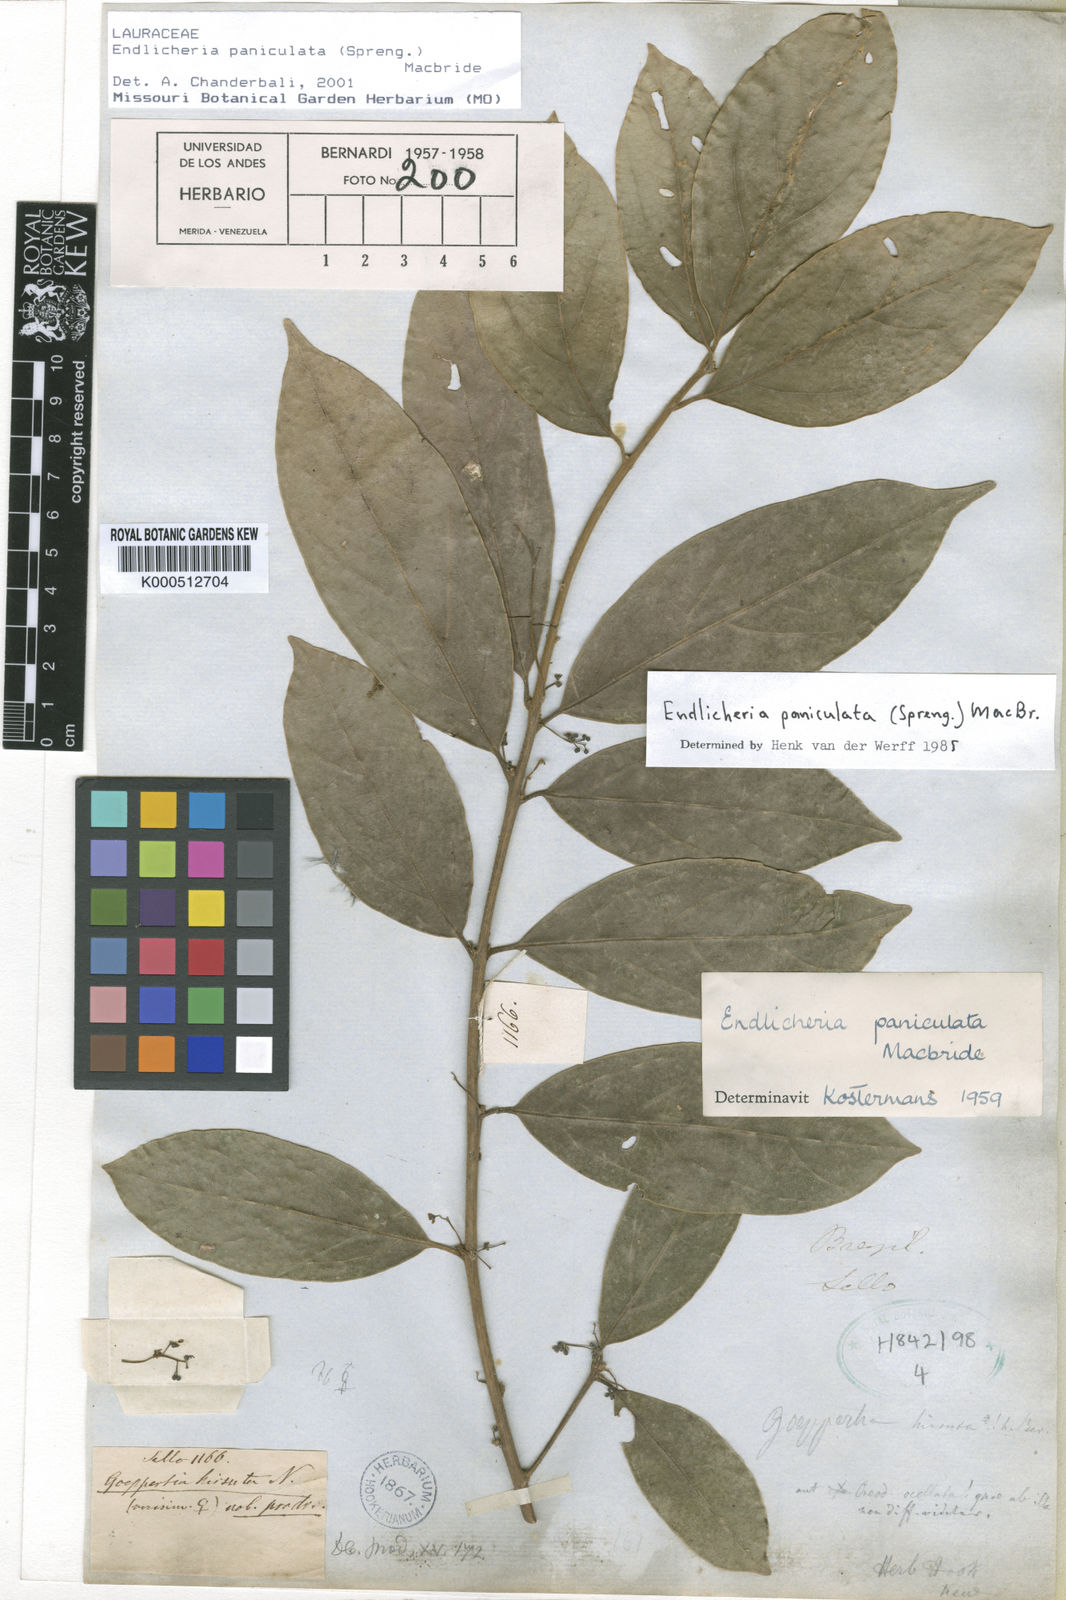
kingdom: Plantae
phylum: Tracheophyta
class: Magnoliopsida
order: Laurales
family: Lauraceae
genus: Endlicheria
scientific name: Endlicheria paniculata
